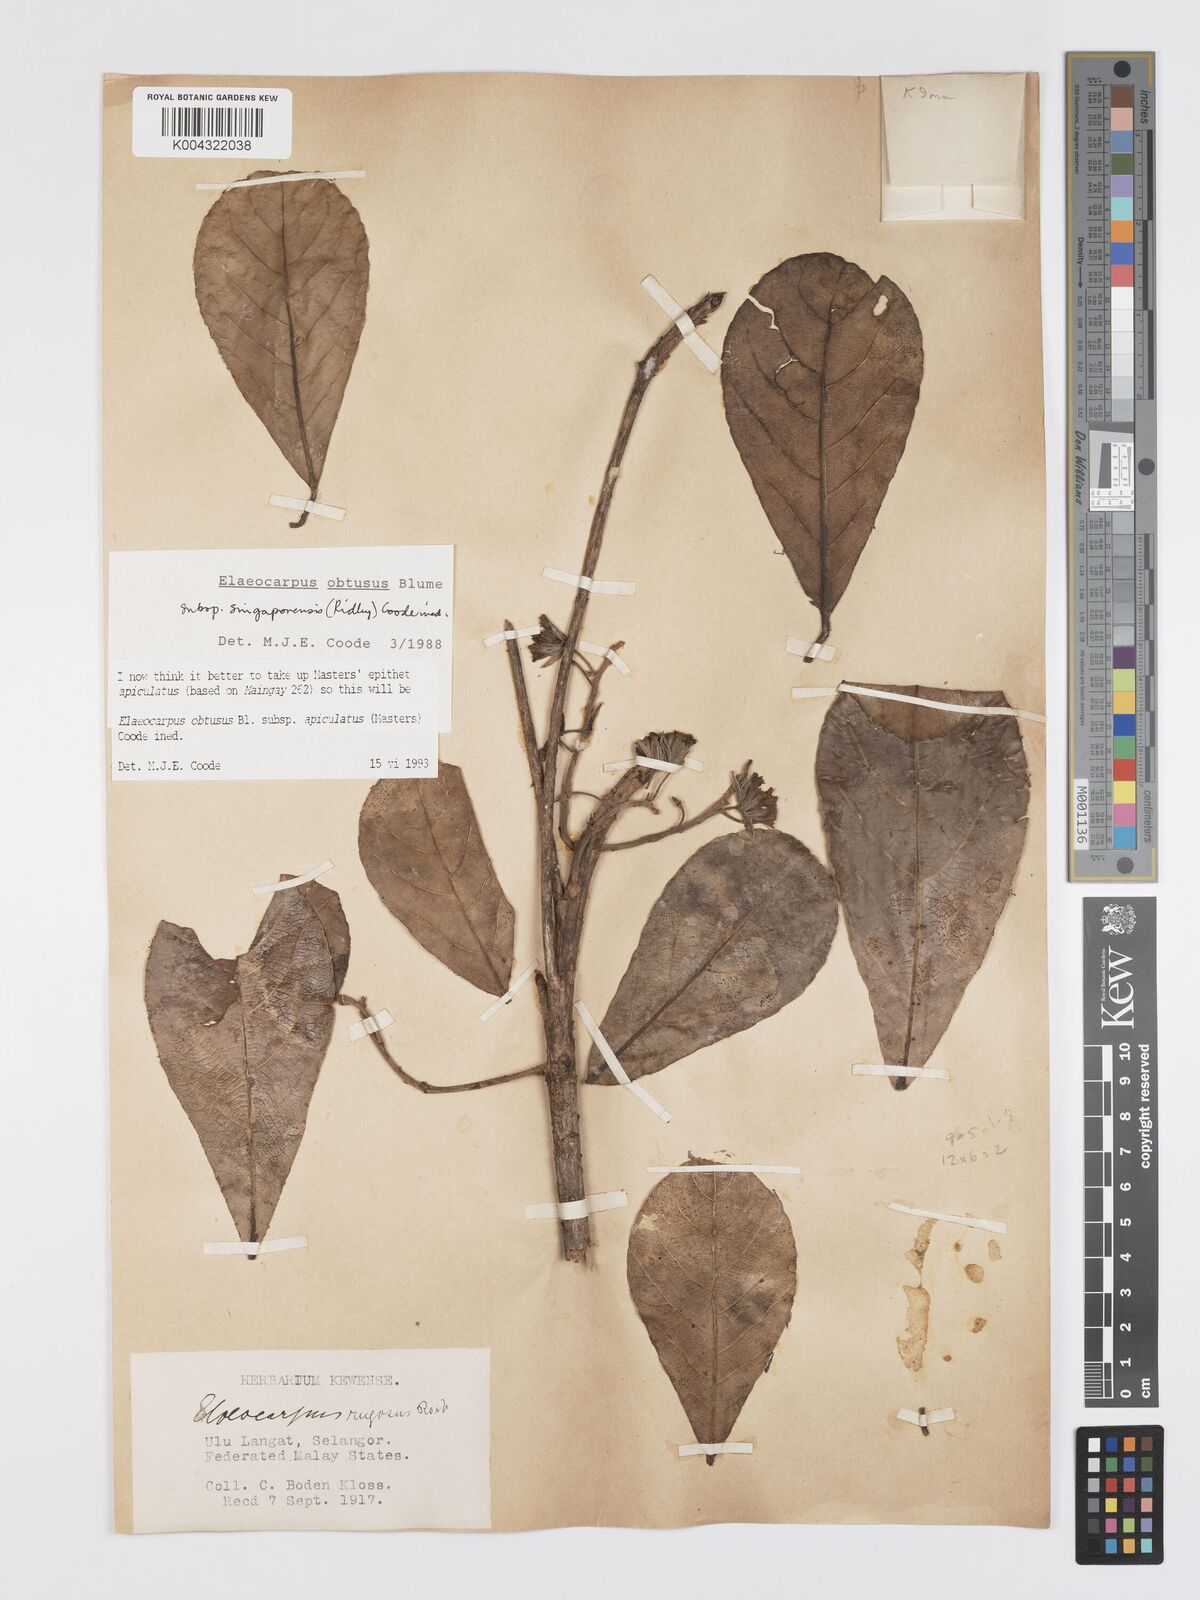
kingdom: Plantae
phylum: Tracheophyta
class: Magnoliopsida
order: Oxalidales
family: Elaeocarpaceae
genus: Elaeocarpus
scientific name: Elaeocarpus obtusus
